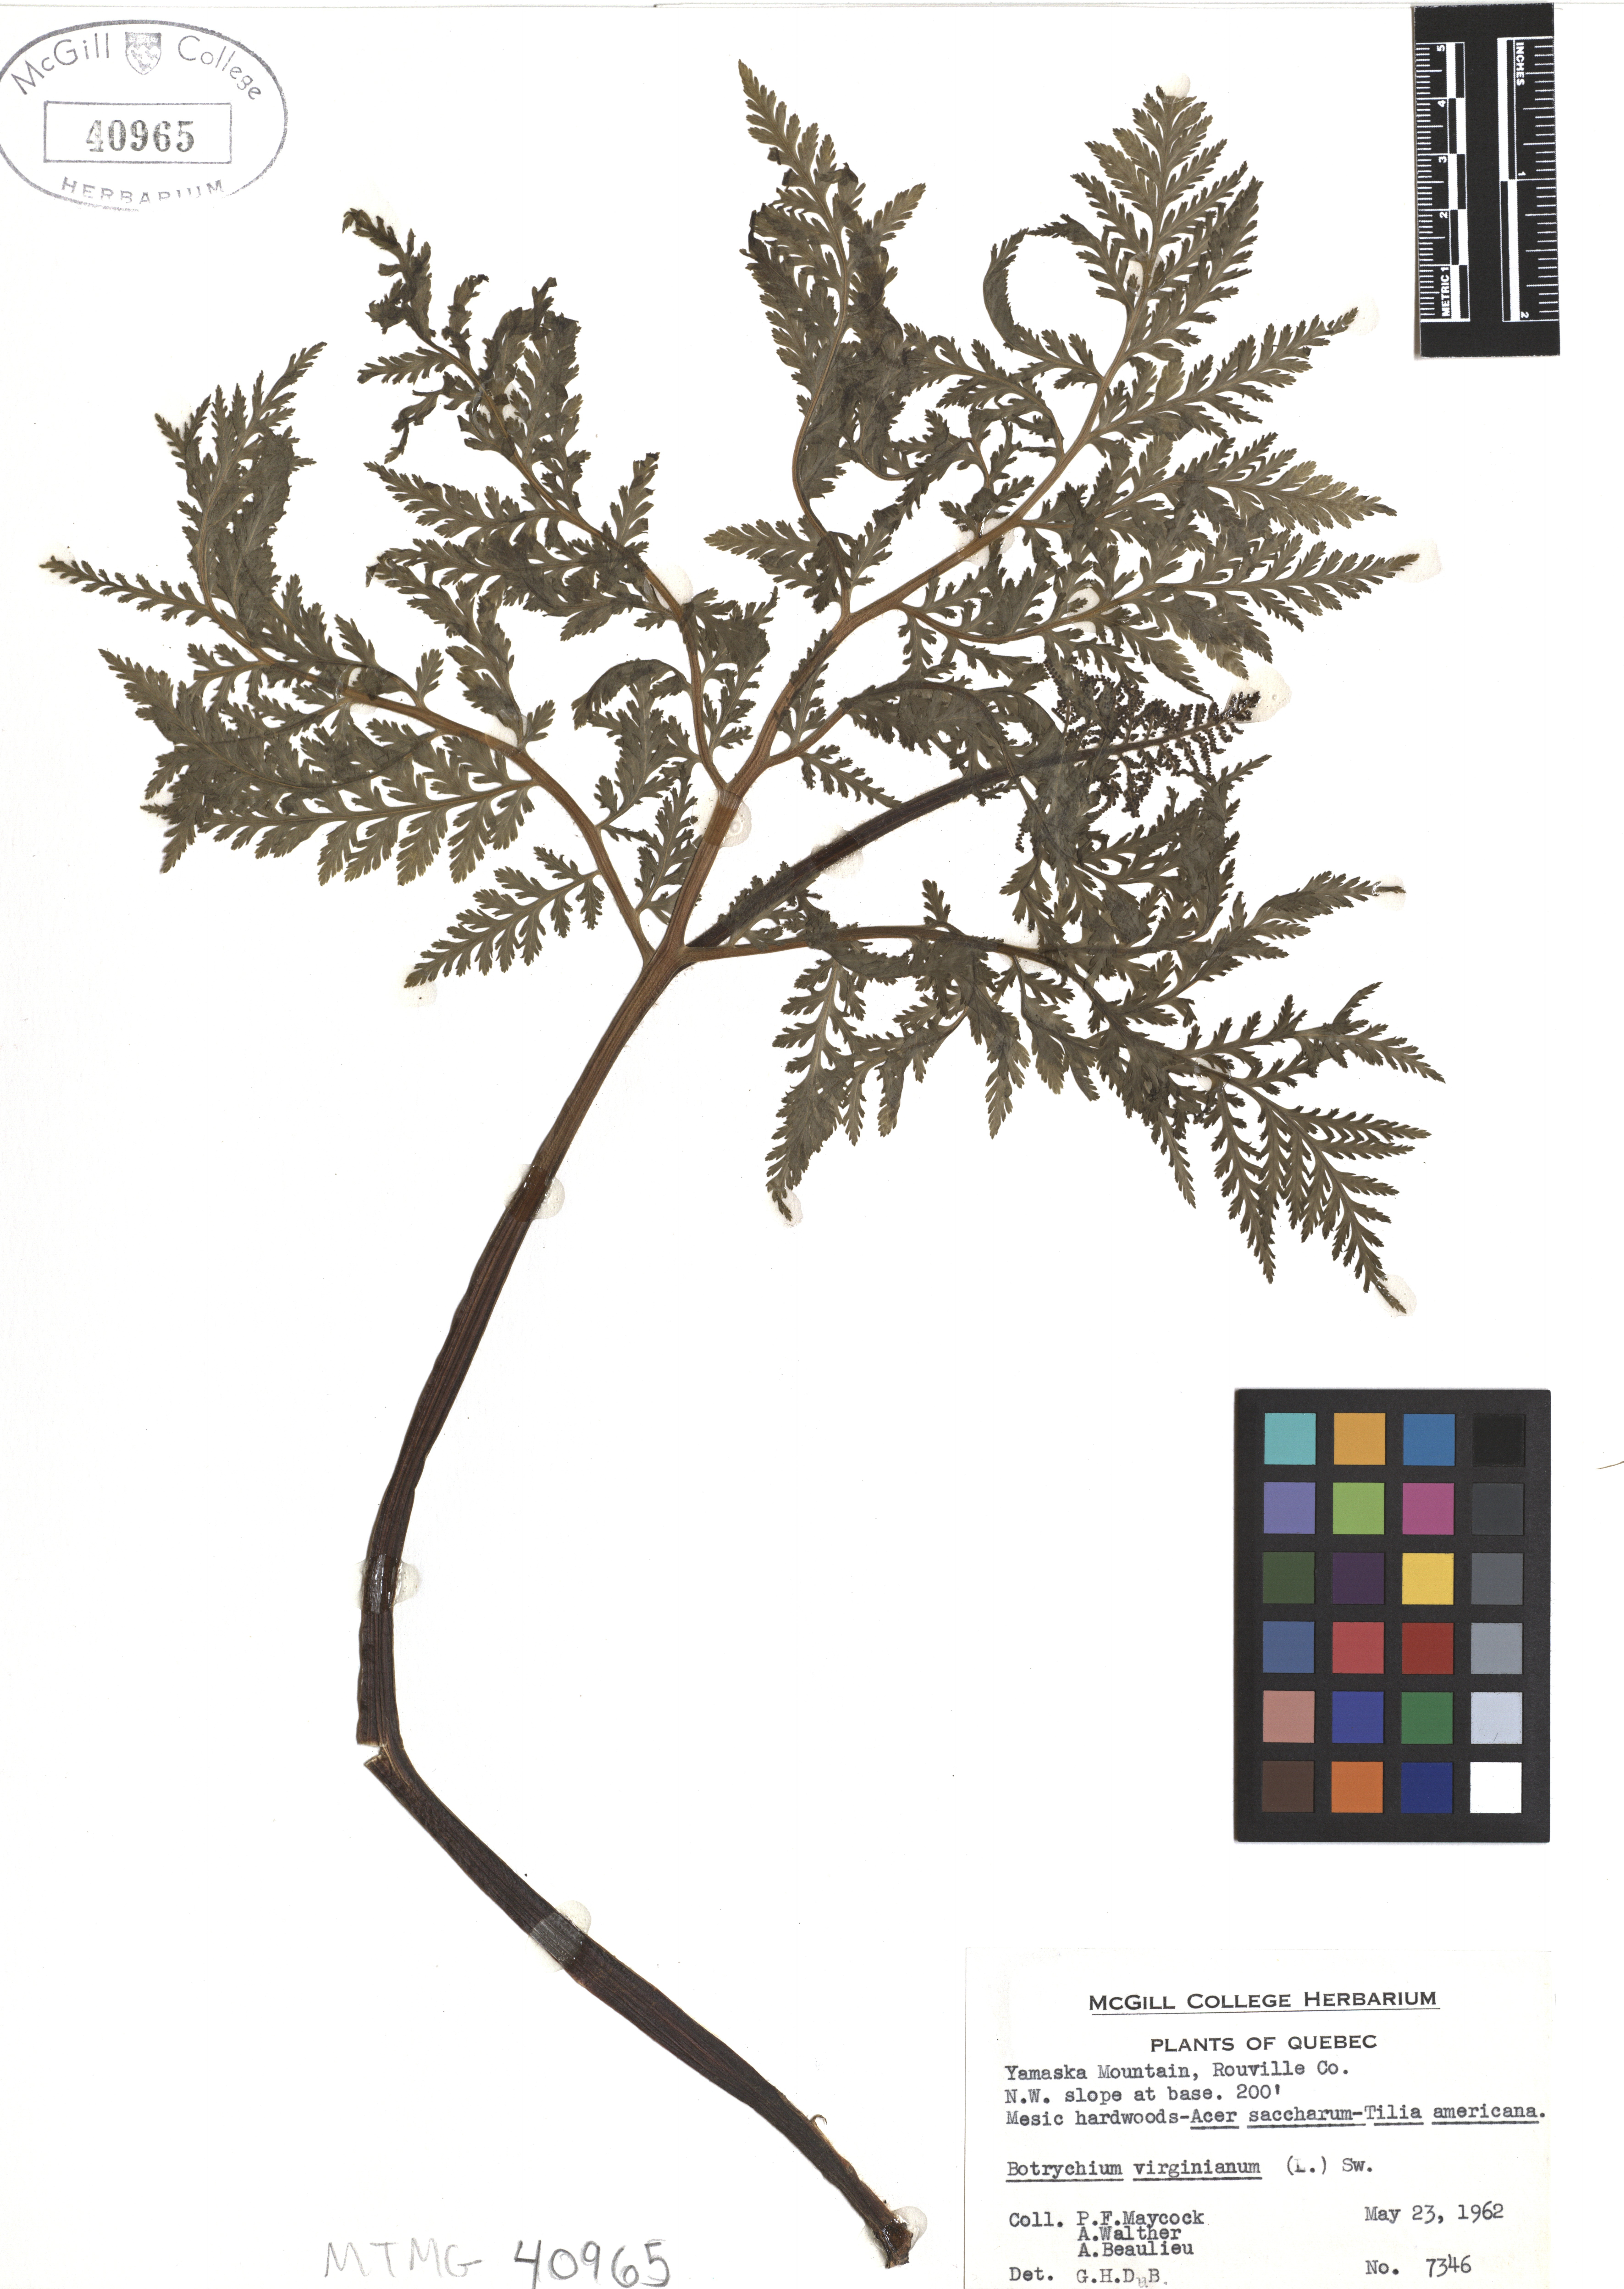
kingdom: Plantae
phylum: Tracheophyta
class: Polypodiopsida
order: Ophioglossales
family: Ophioglossaceae
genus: Botrypus
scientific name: Botrypus virginianus
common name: Common grapefern
